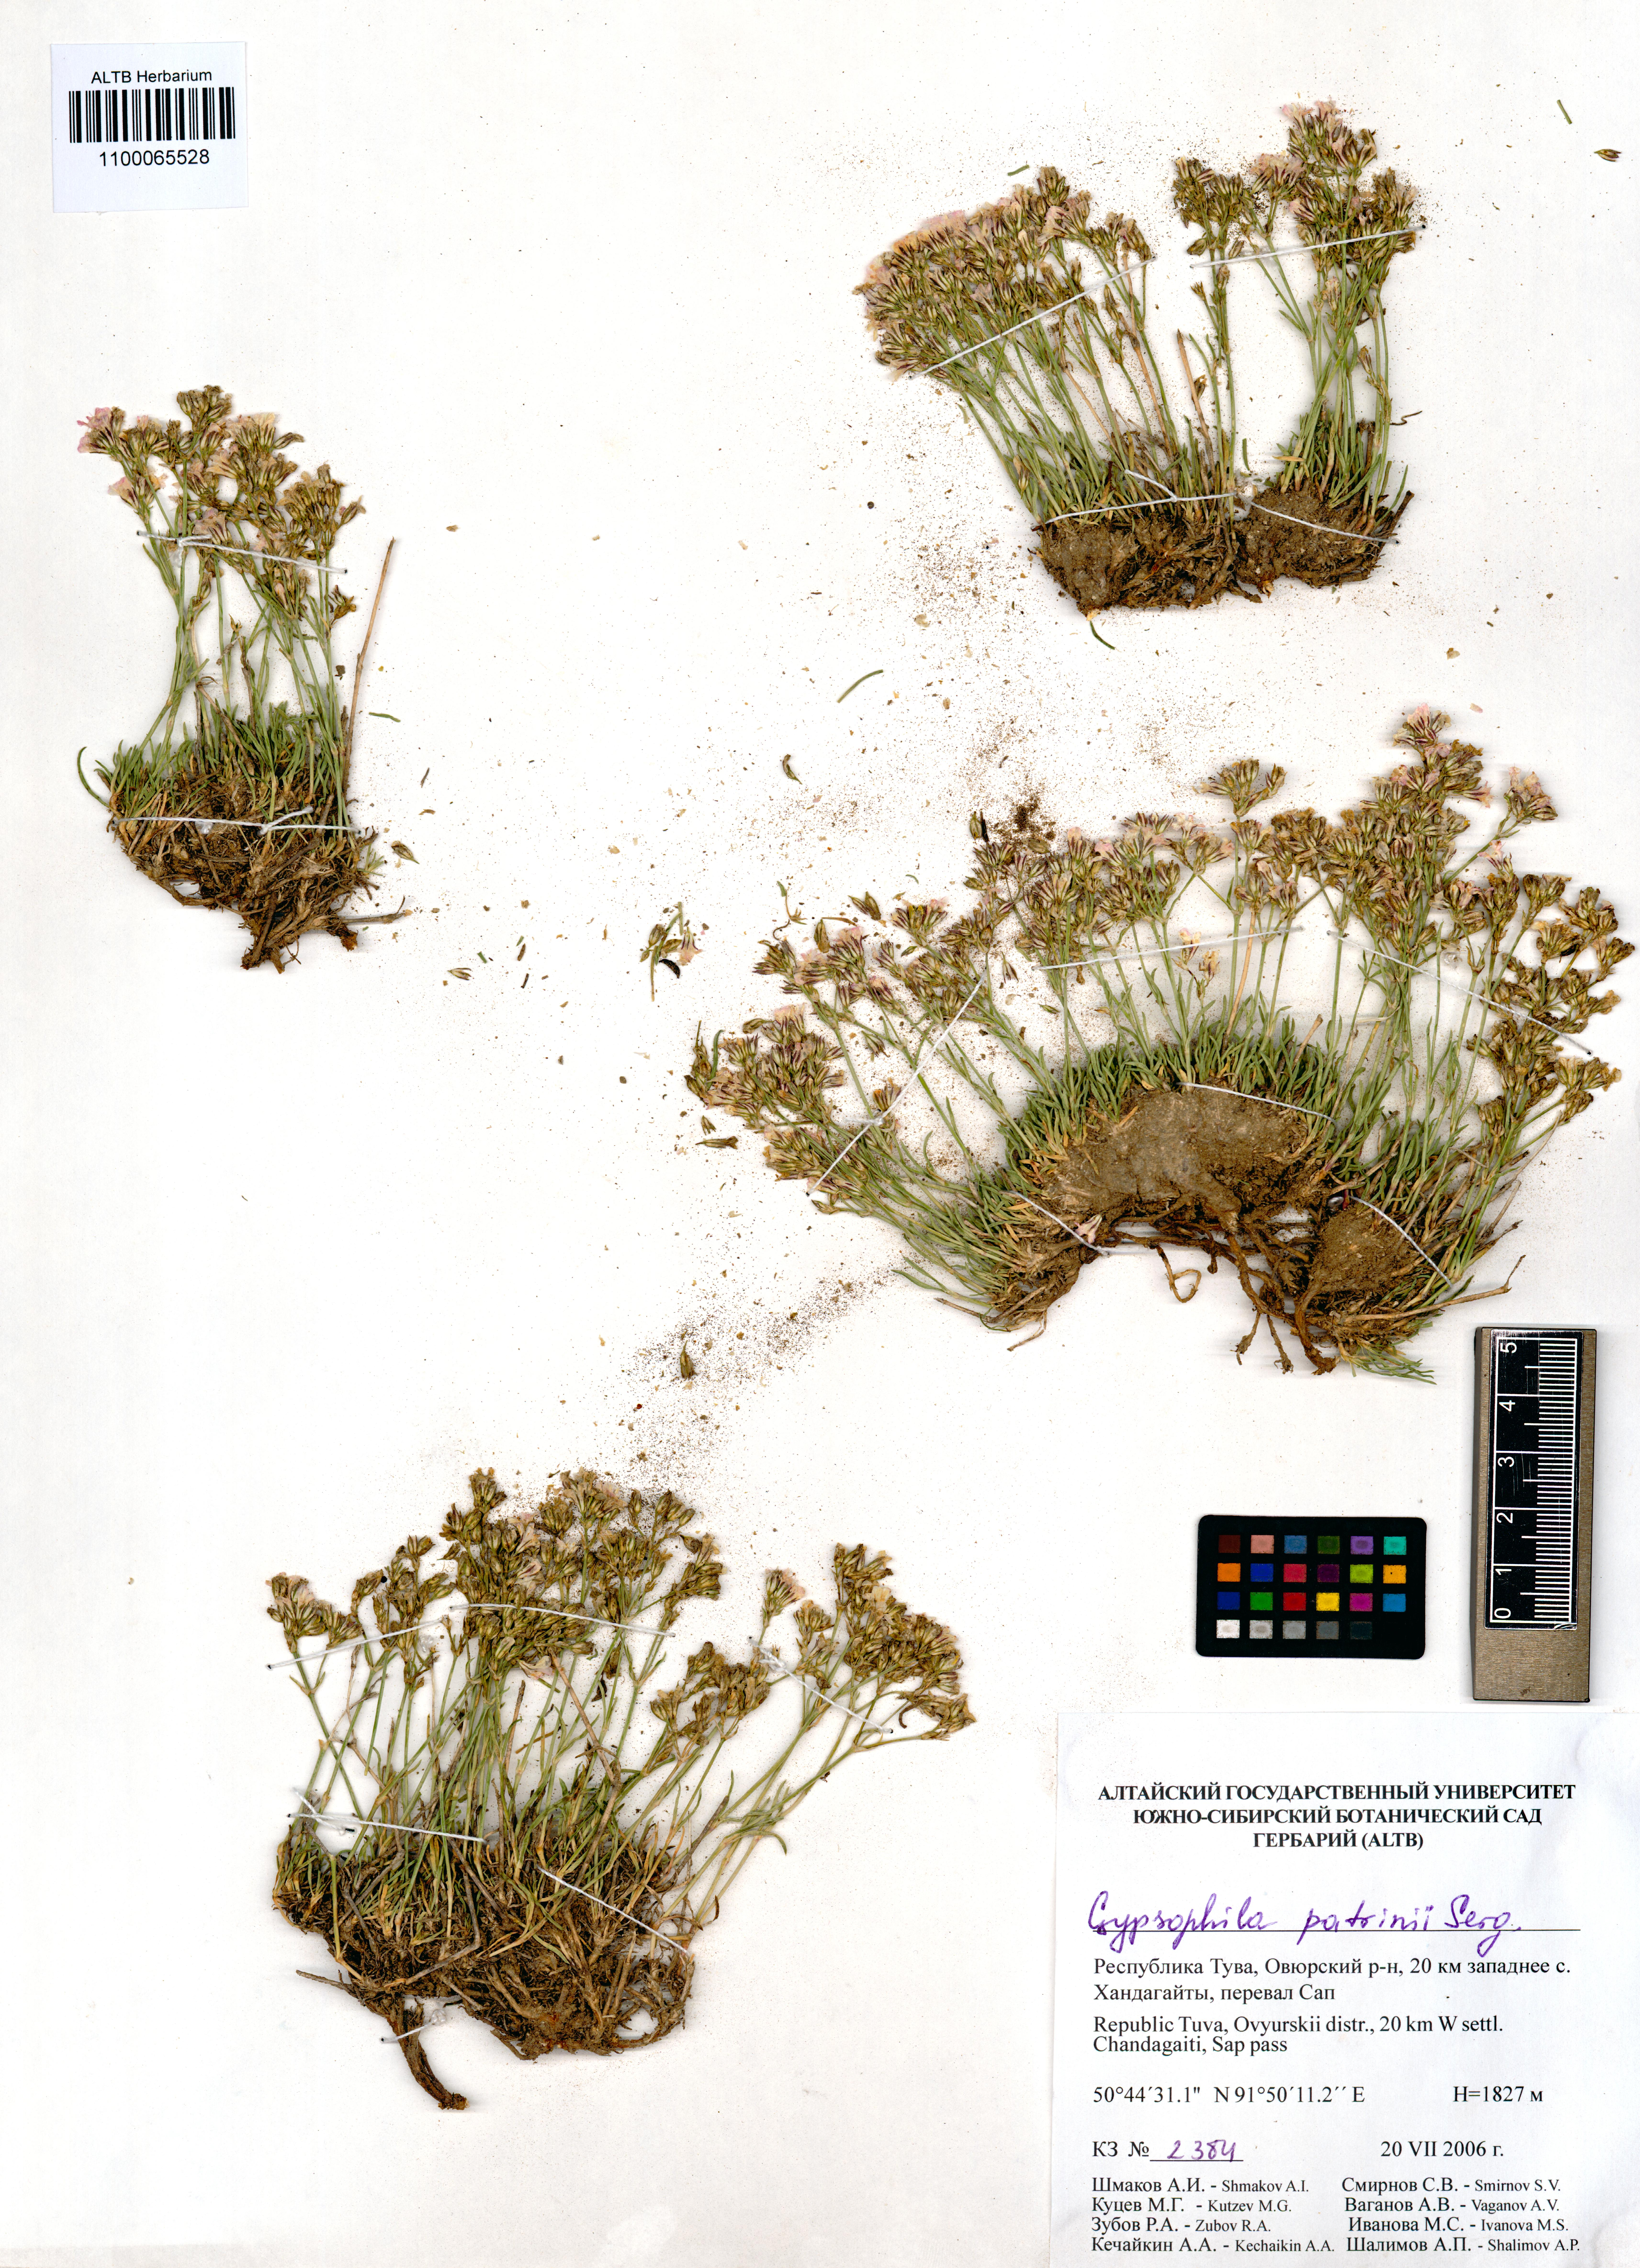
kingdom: Plantae
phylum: Tracheophyta
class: Magnoliopsida
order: Caryophyllales
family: Caryophyllaceae
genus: Gypsophila
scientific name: Gypsophila patrinii
